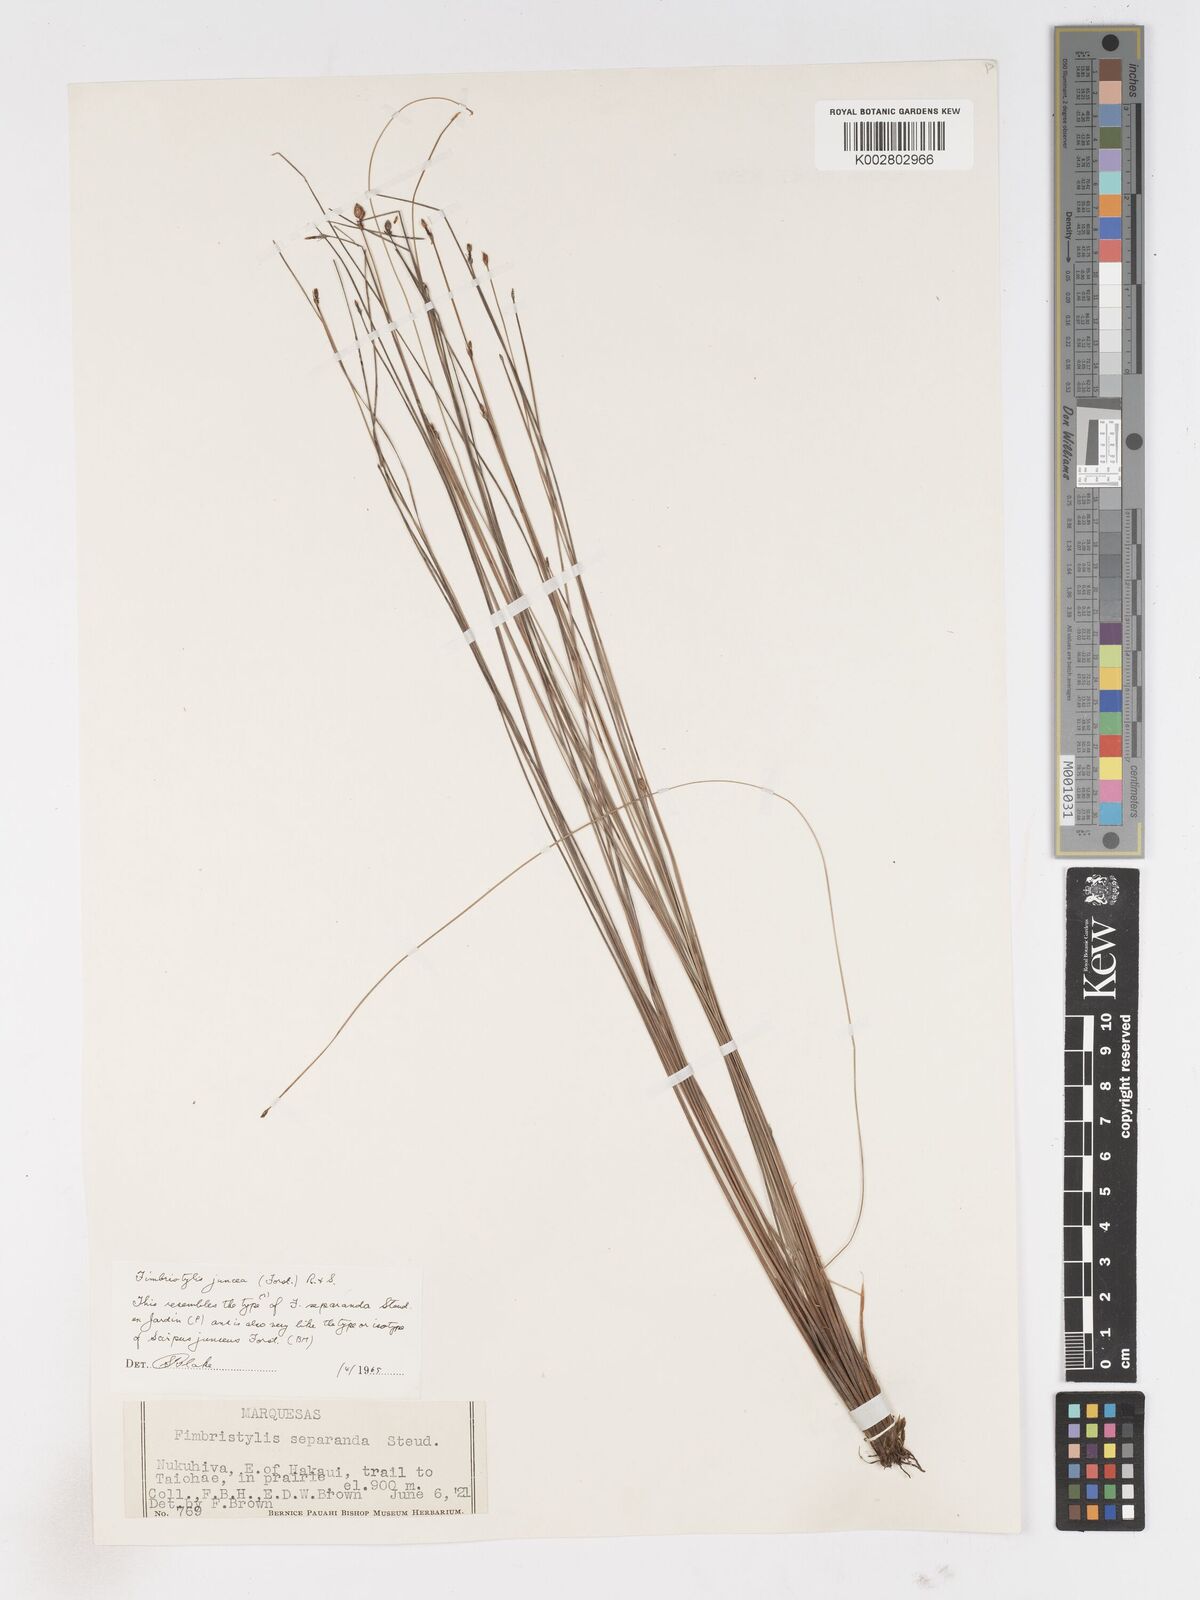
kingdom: Plantae
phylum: Tracheophyta
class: Liliopsida
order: Poales
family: Cyperaceae
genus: Fimbristylis
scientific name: Fimbristylis juncea
